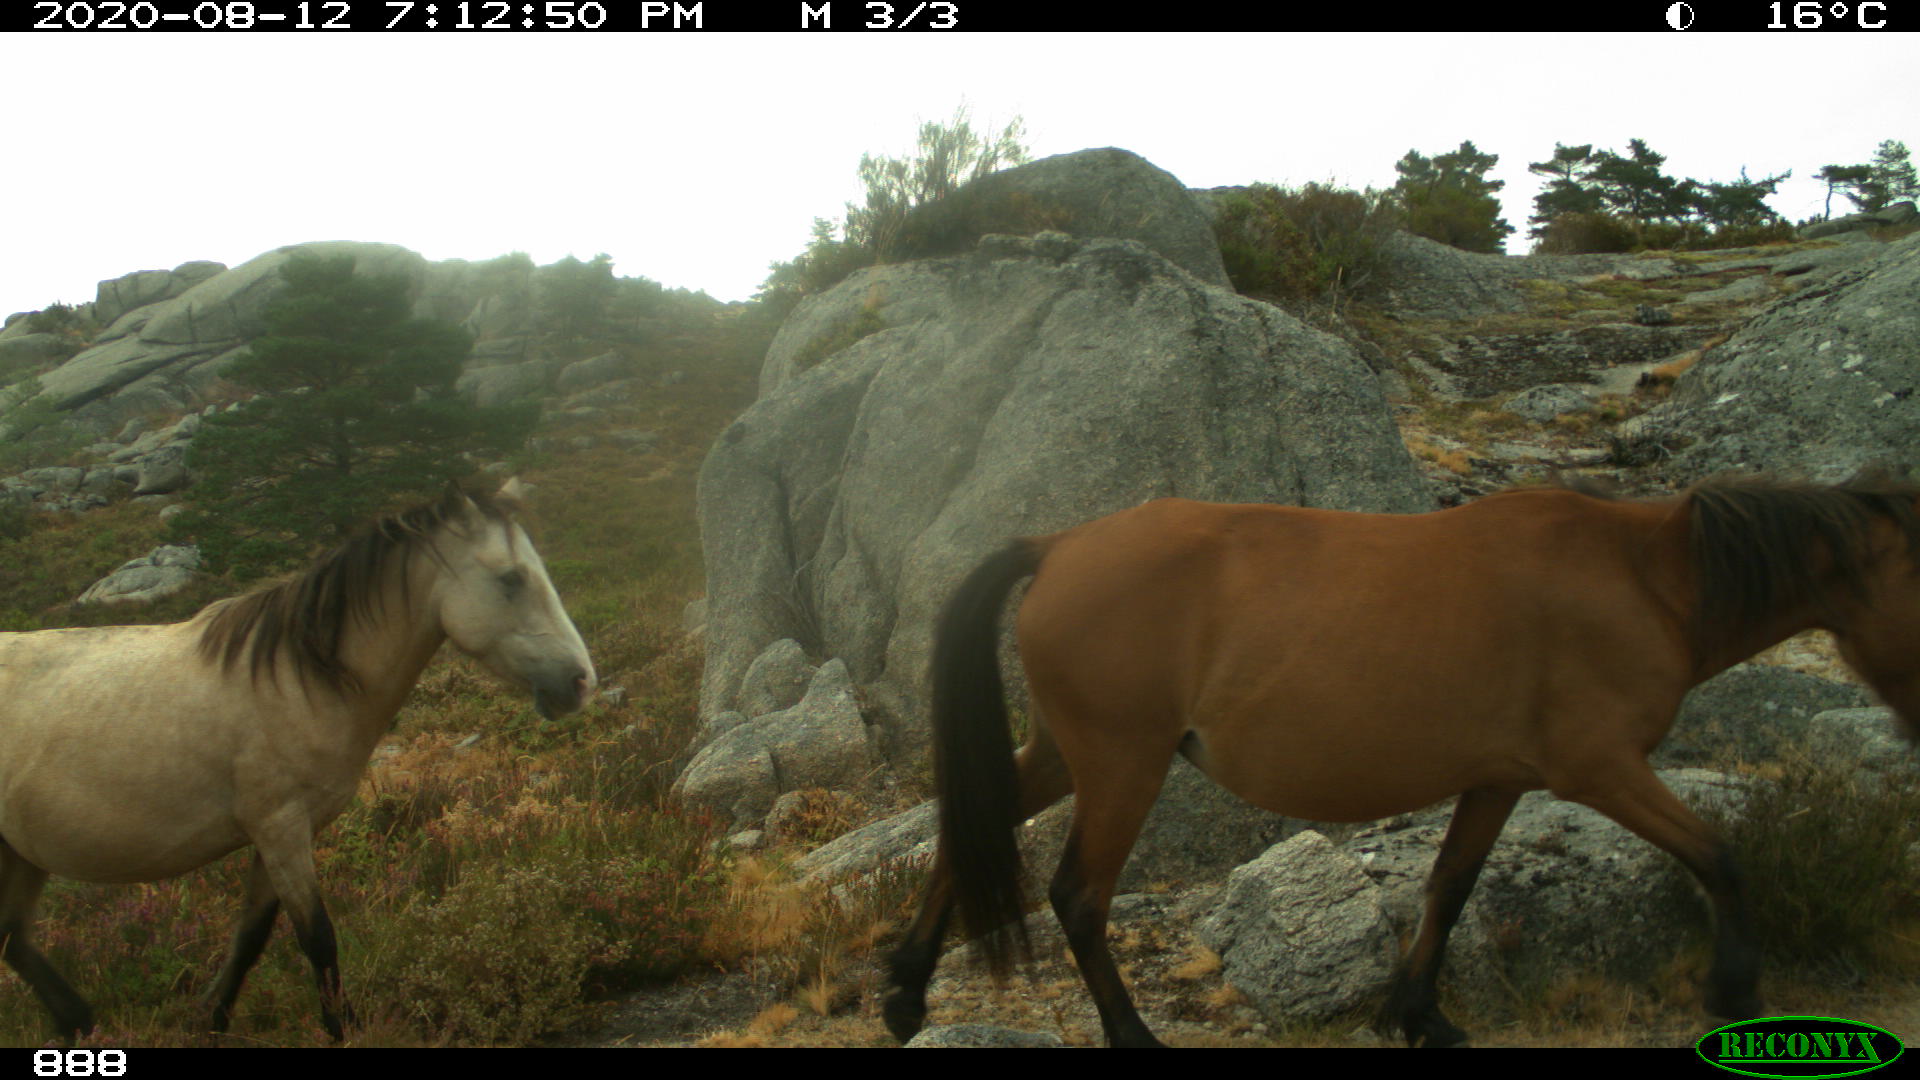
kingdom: Animalia
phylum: Chordata
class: Mammalia
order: Perissodactyla
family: Equidae
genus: Equus
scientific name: Equus caballus
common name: Horse
